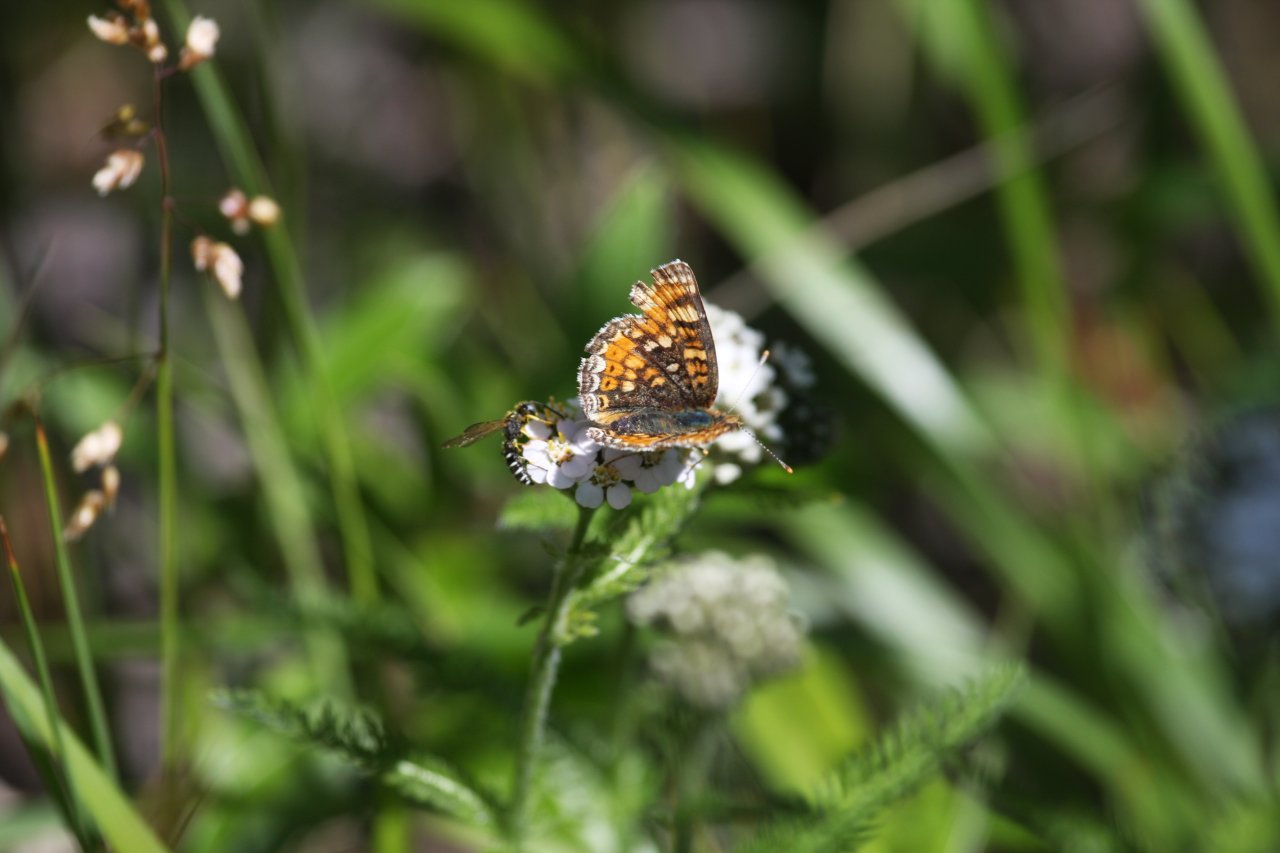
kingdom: Animalia
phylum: Arthropoda
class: Insecta
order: Lepidoptera
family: Nymphalidae
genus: Phyciodes
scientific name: Phyciodes tharos
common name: Field Crescent
